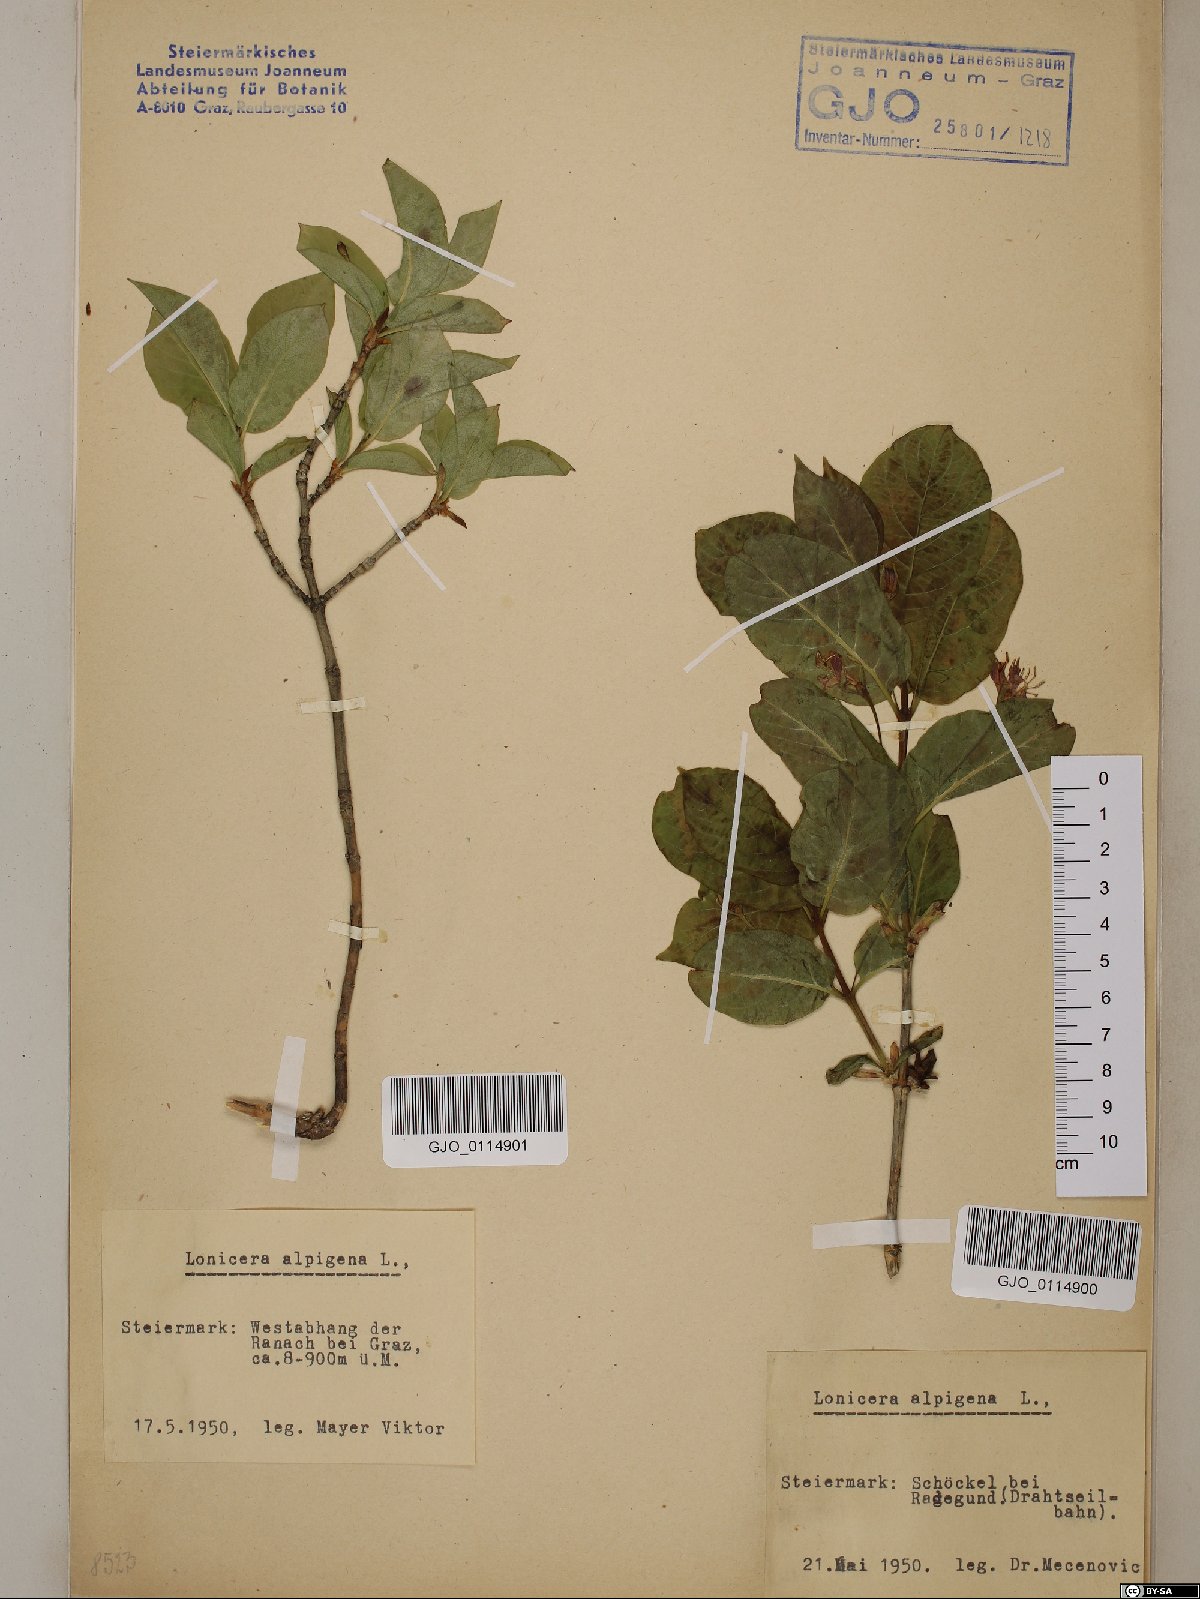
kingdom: Plantae
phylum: Tracheophyta
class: Magnoliopsida
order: Dipsacales
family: Caprifoliaceae
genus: Lonicera
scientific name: Lonicera alpigena
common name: Alpine honeysuckle
